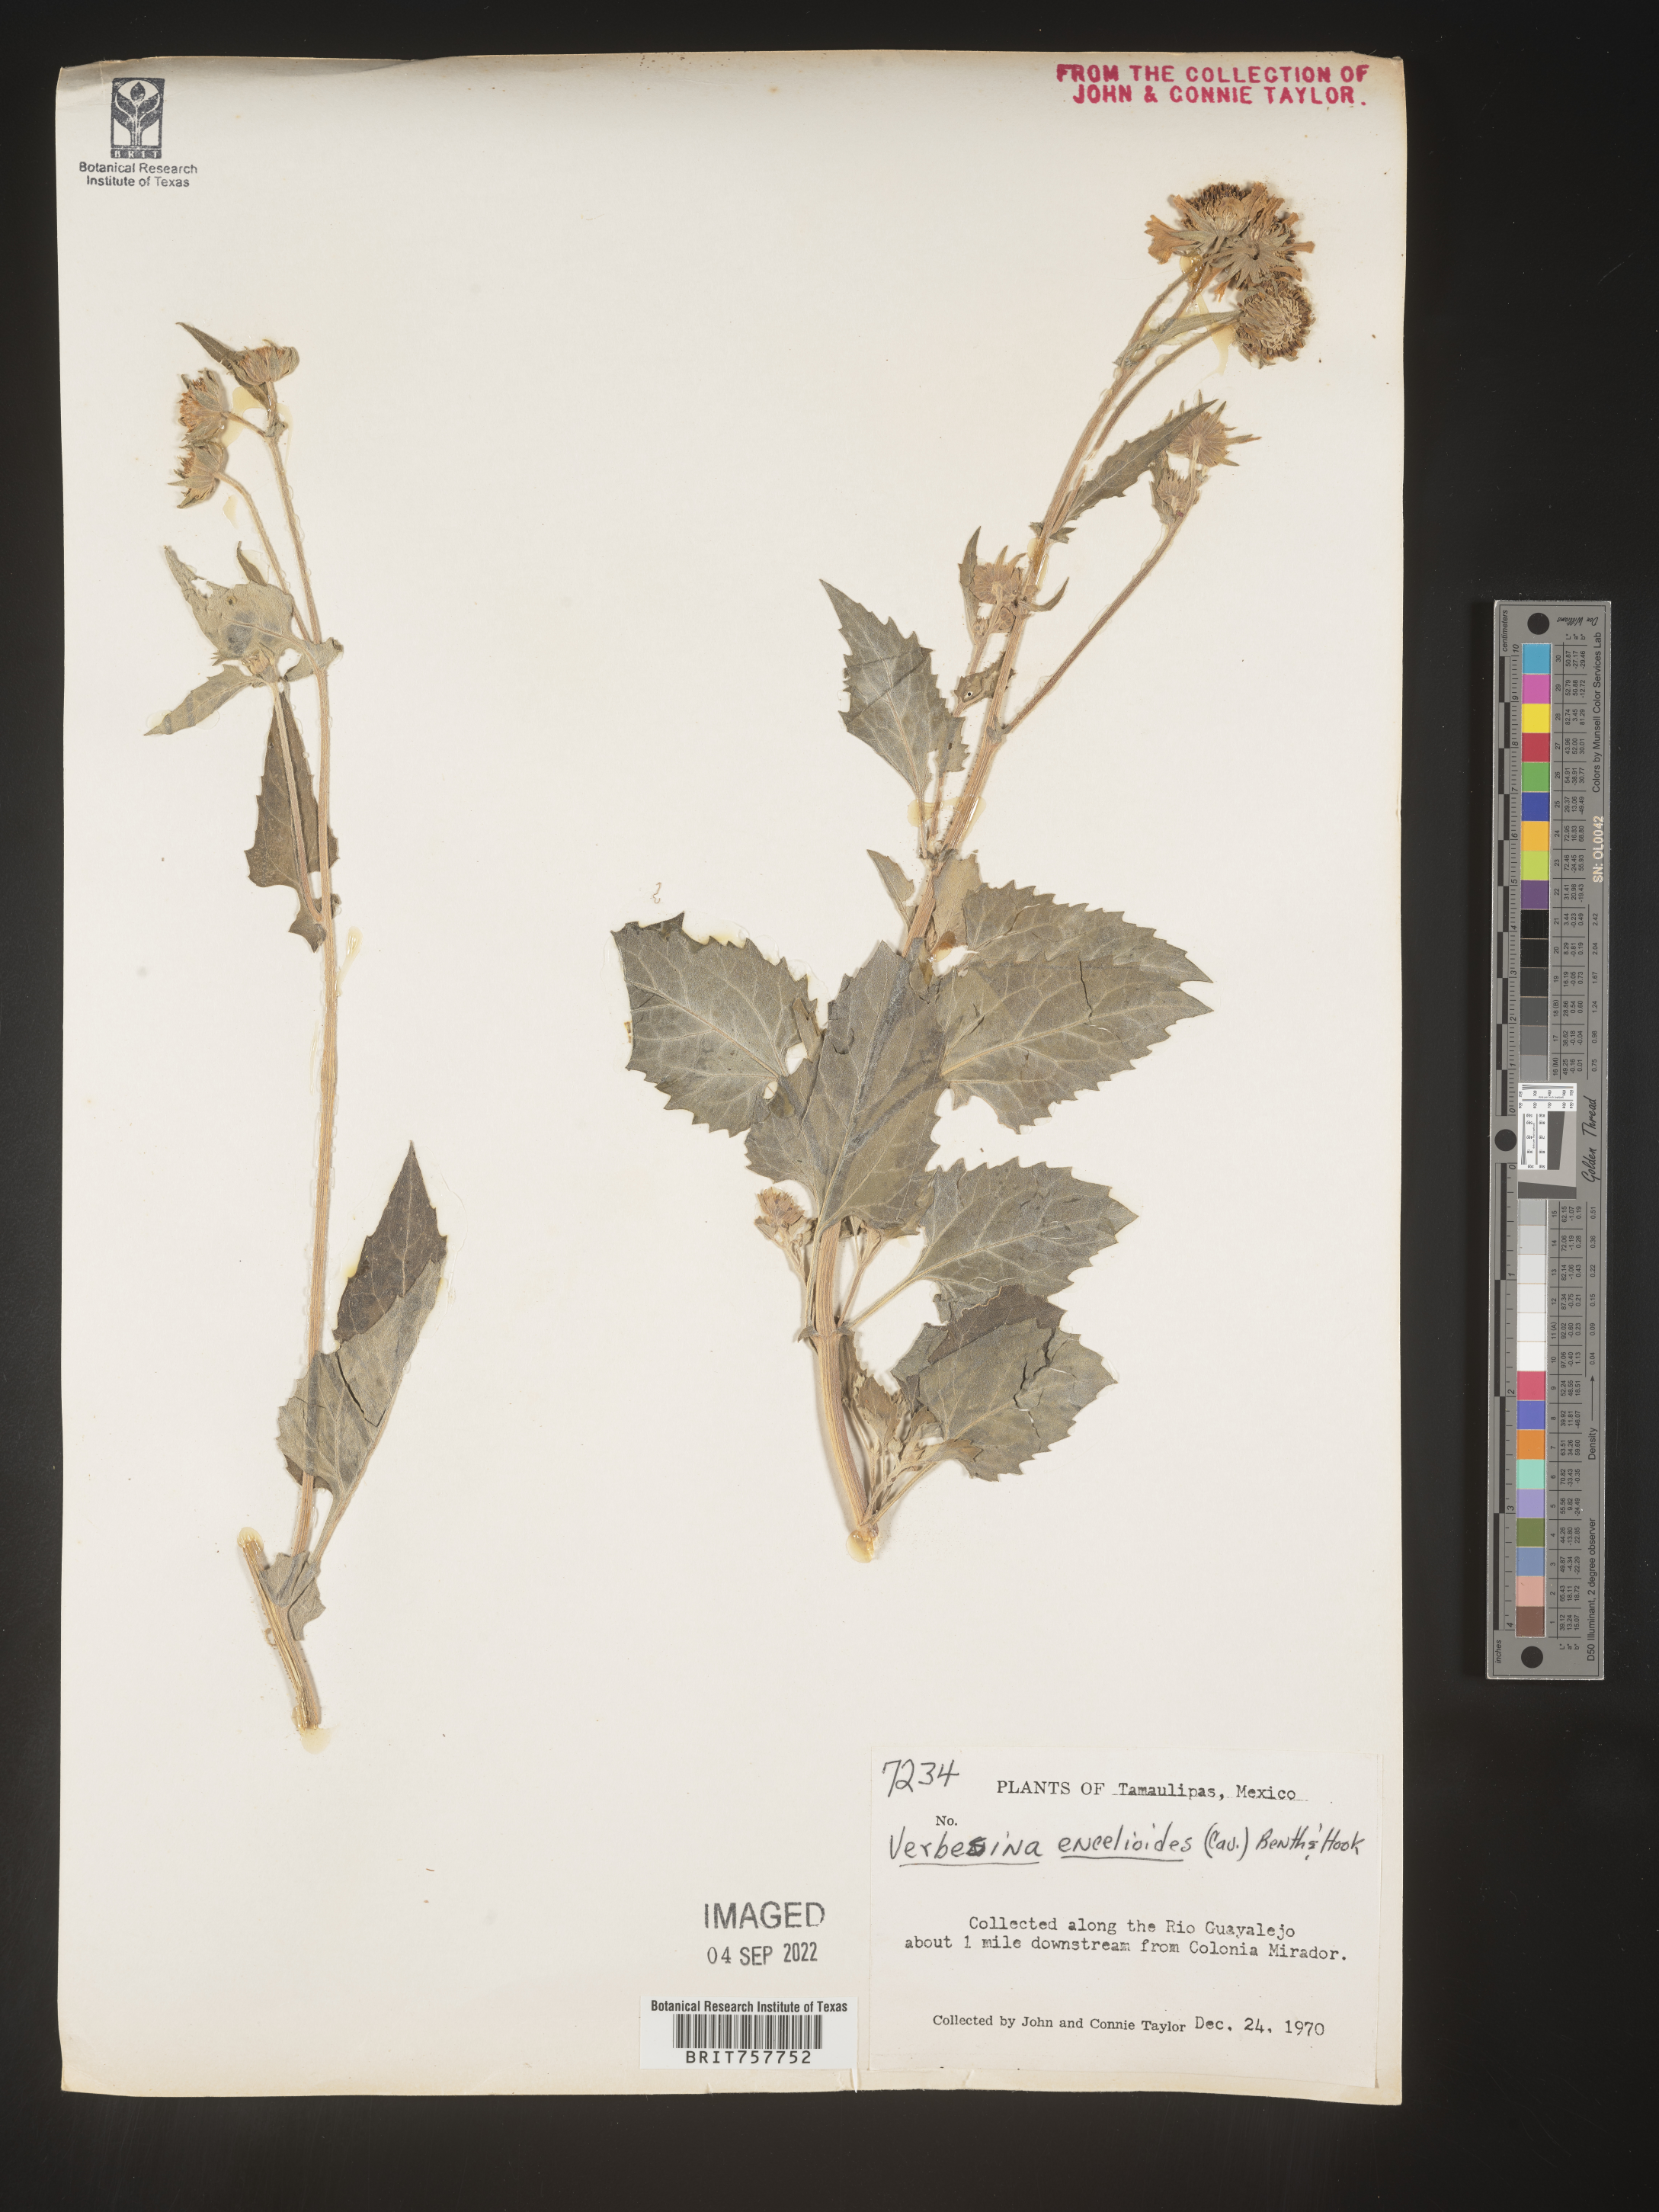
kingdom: Plantae
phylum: Tracheophyta
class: Magnoliopsida
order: Asterales
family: Asteraceae
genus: Verbesina
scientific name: Verbesina
